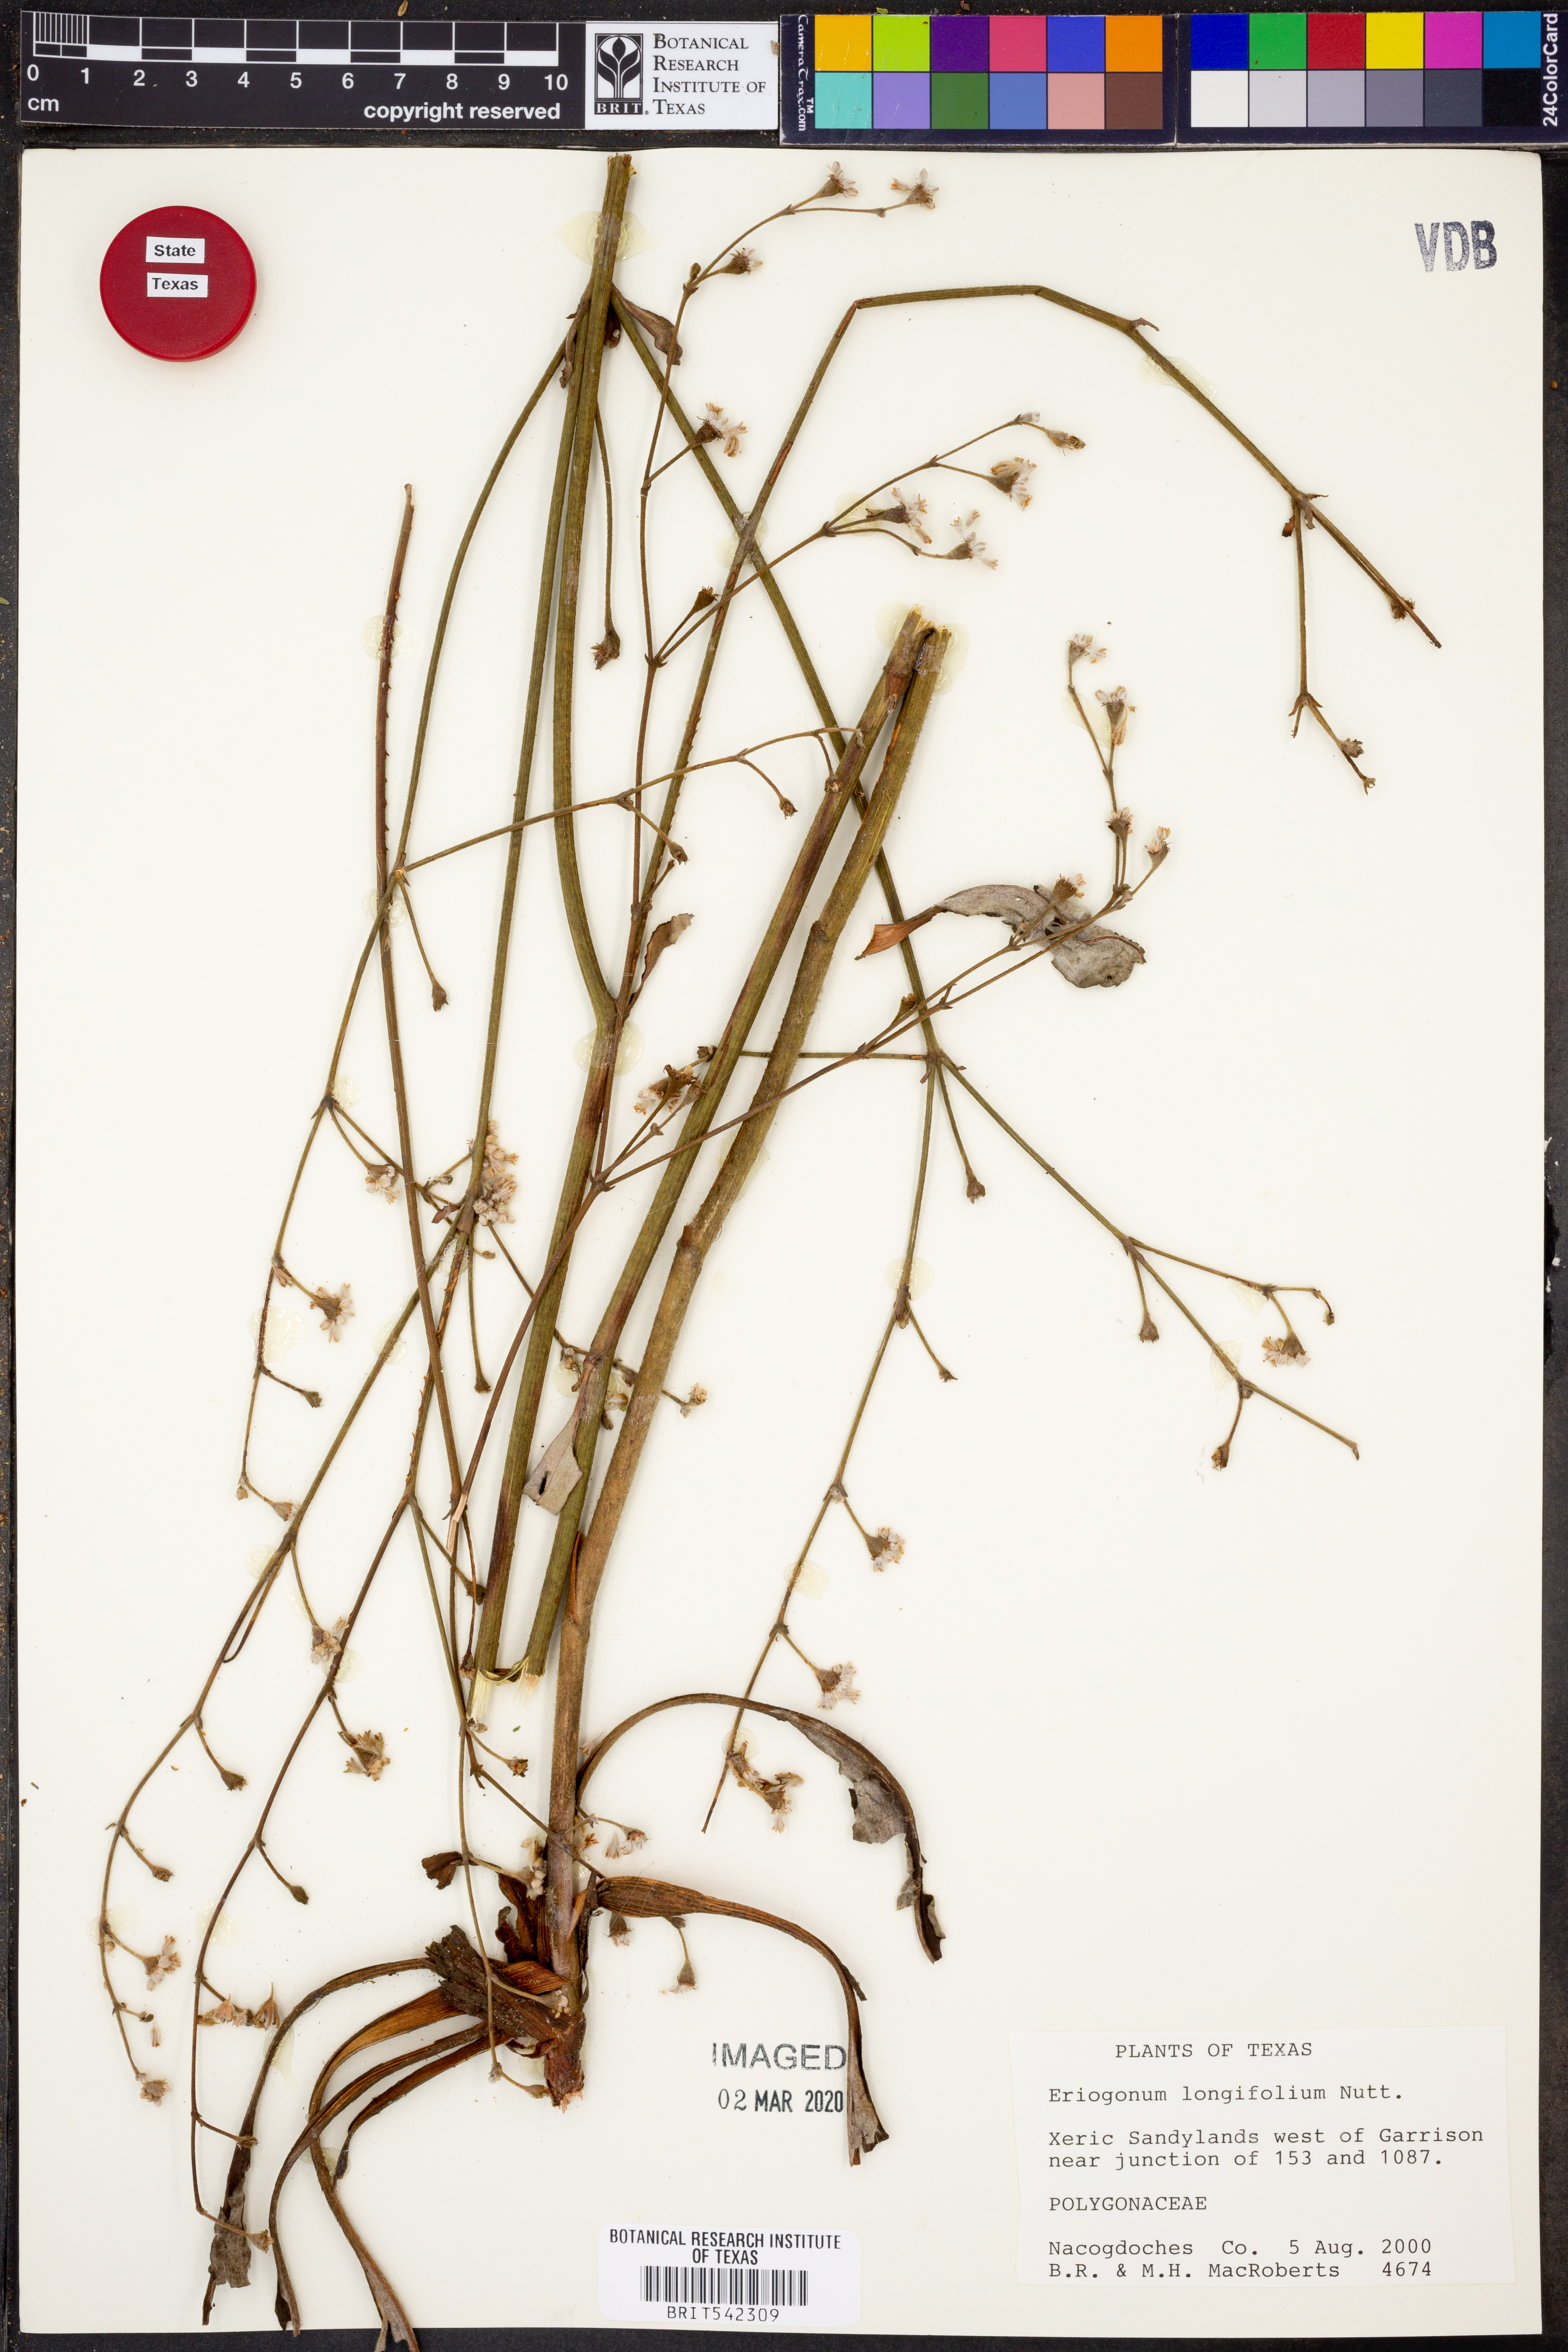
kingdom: Plantae
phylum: Tracheophyta
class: Magnoliopsida
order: Caryophyllales
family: Polygonaceae
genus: Eriogonum
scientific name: Eriogonum longifolium
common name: Longleaf wild buckwheat
